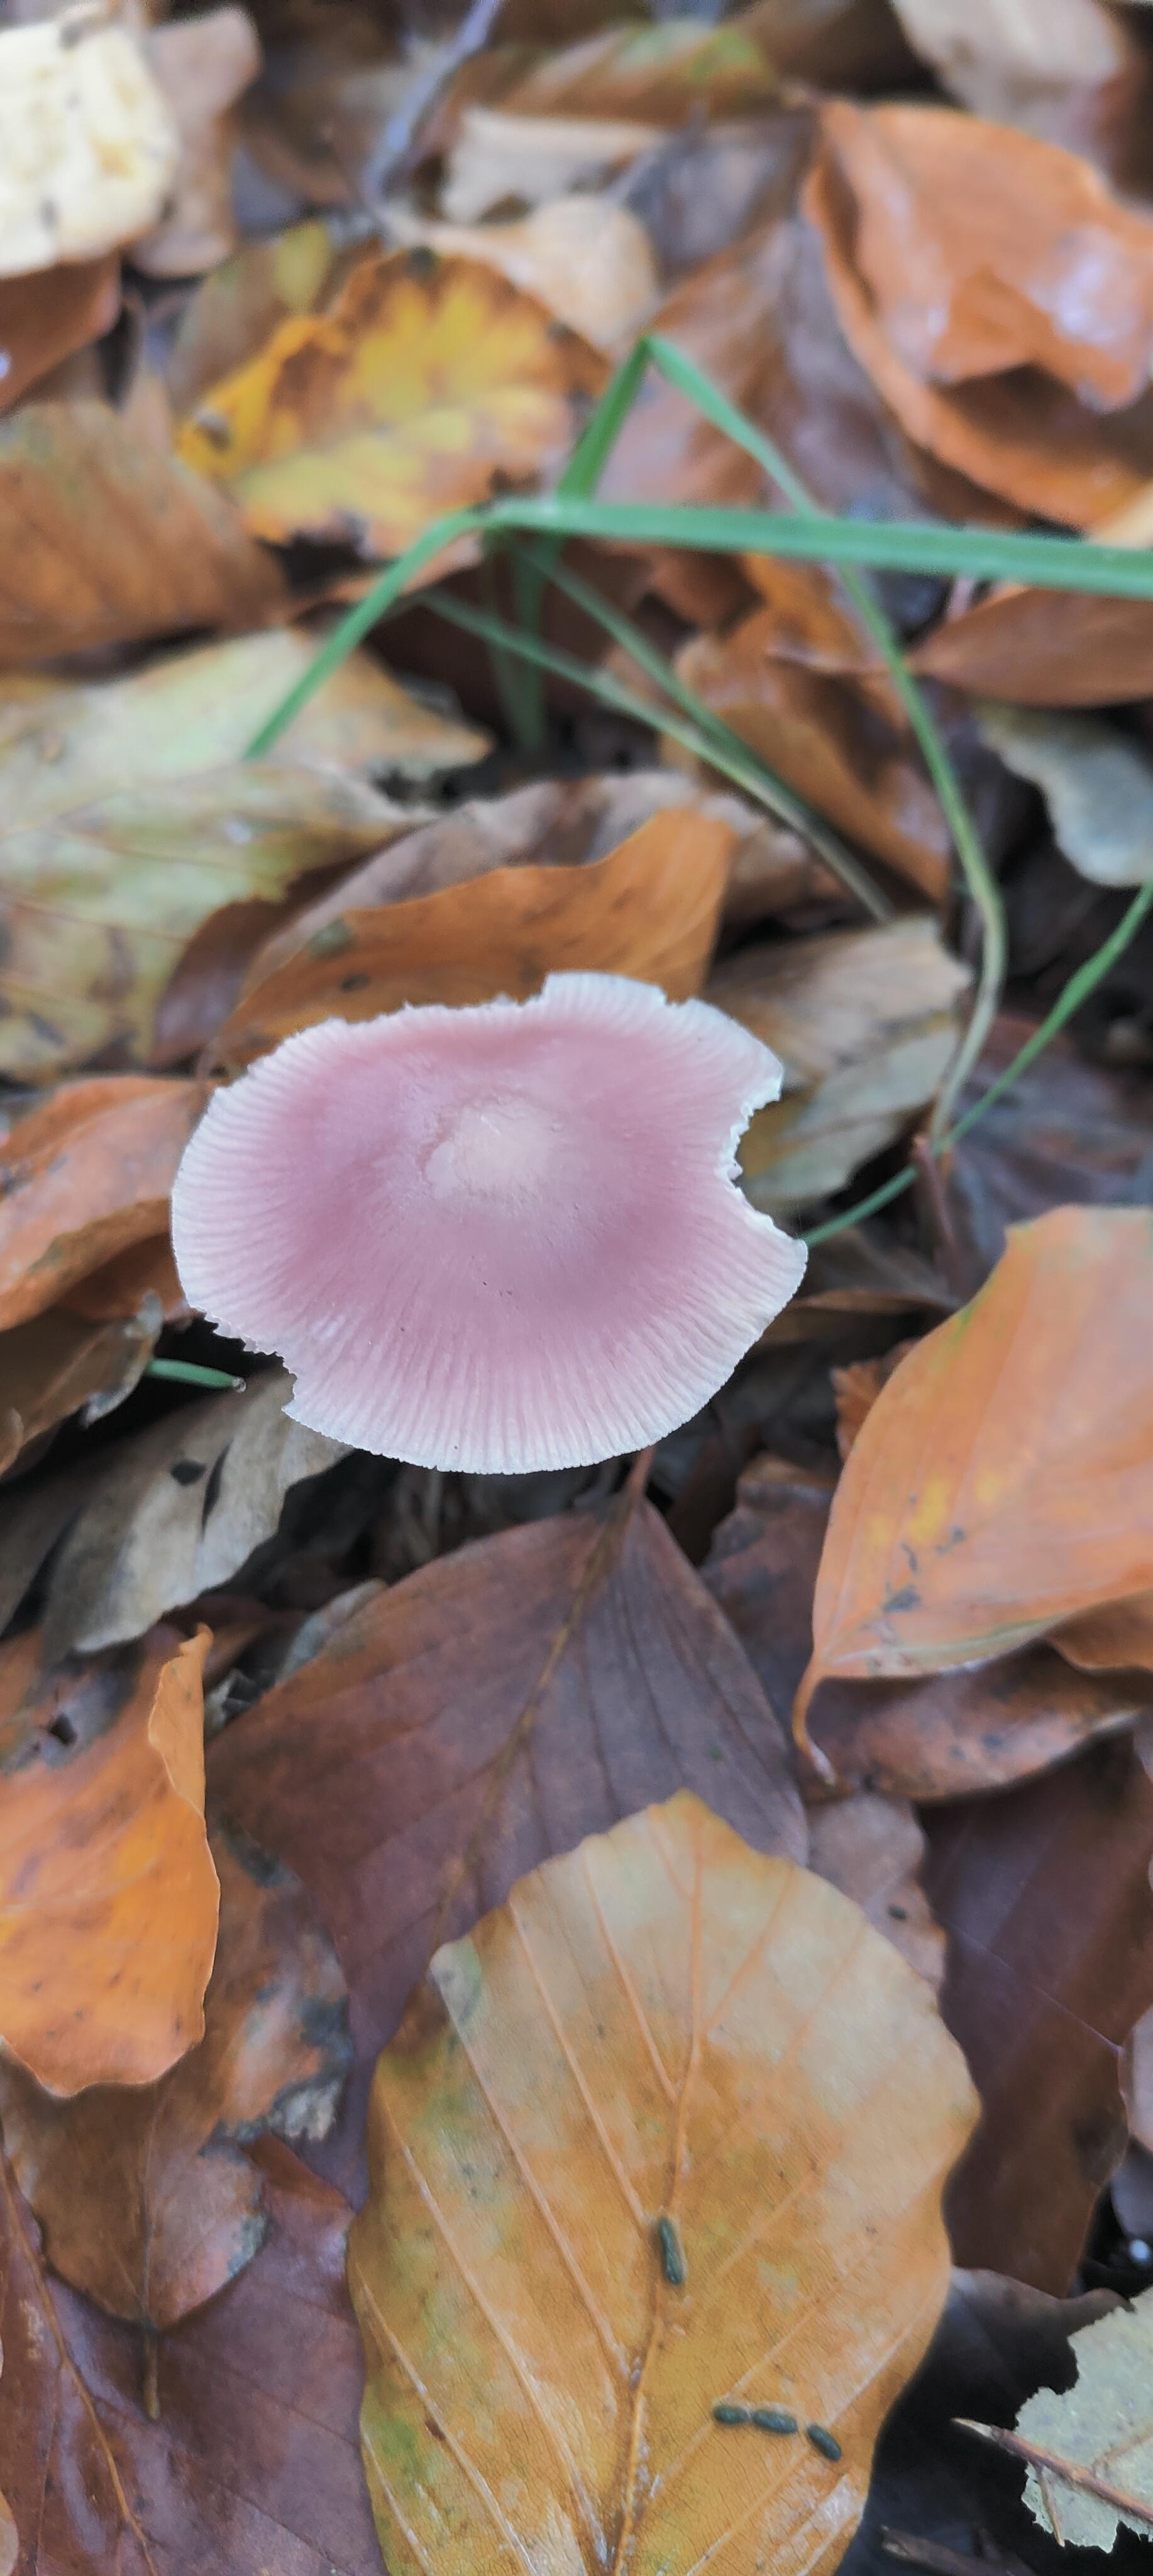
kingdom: Fungi
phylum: Basidiomycota
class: Agaricomycetes
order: Agaricales
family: Mycenaceae
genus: Mycena
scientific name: Mycena rosea
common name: rosa huesvamp
